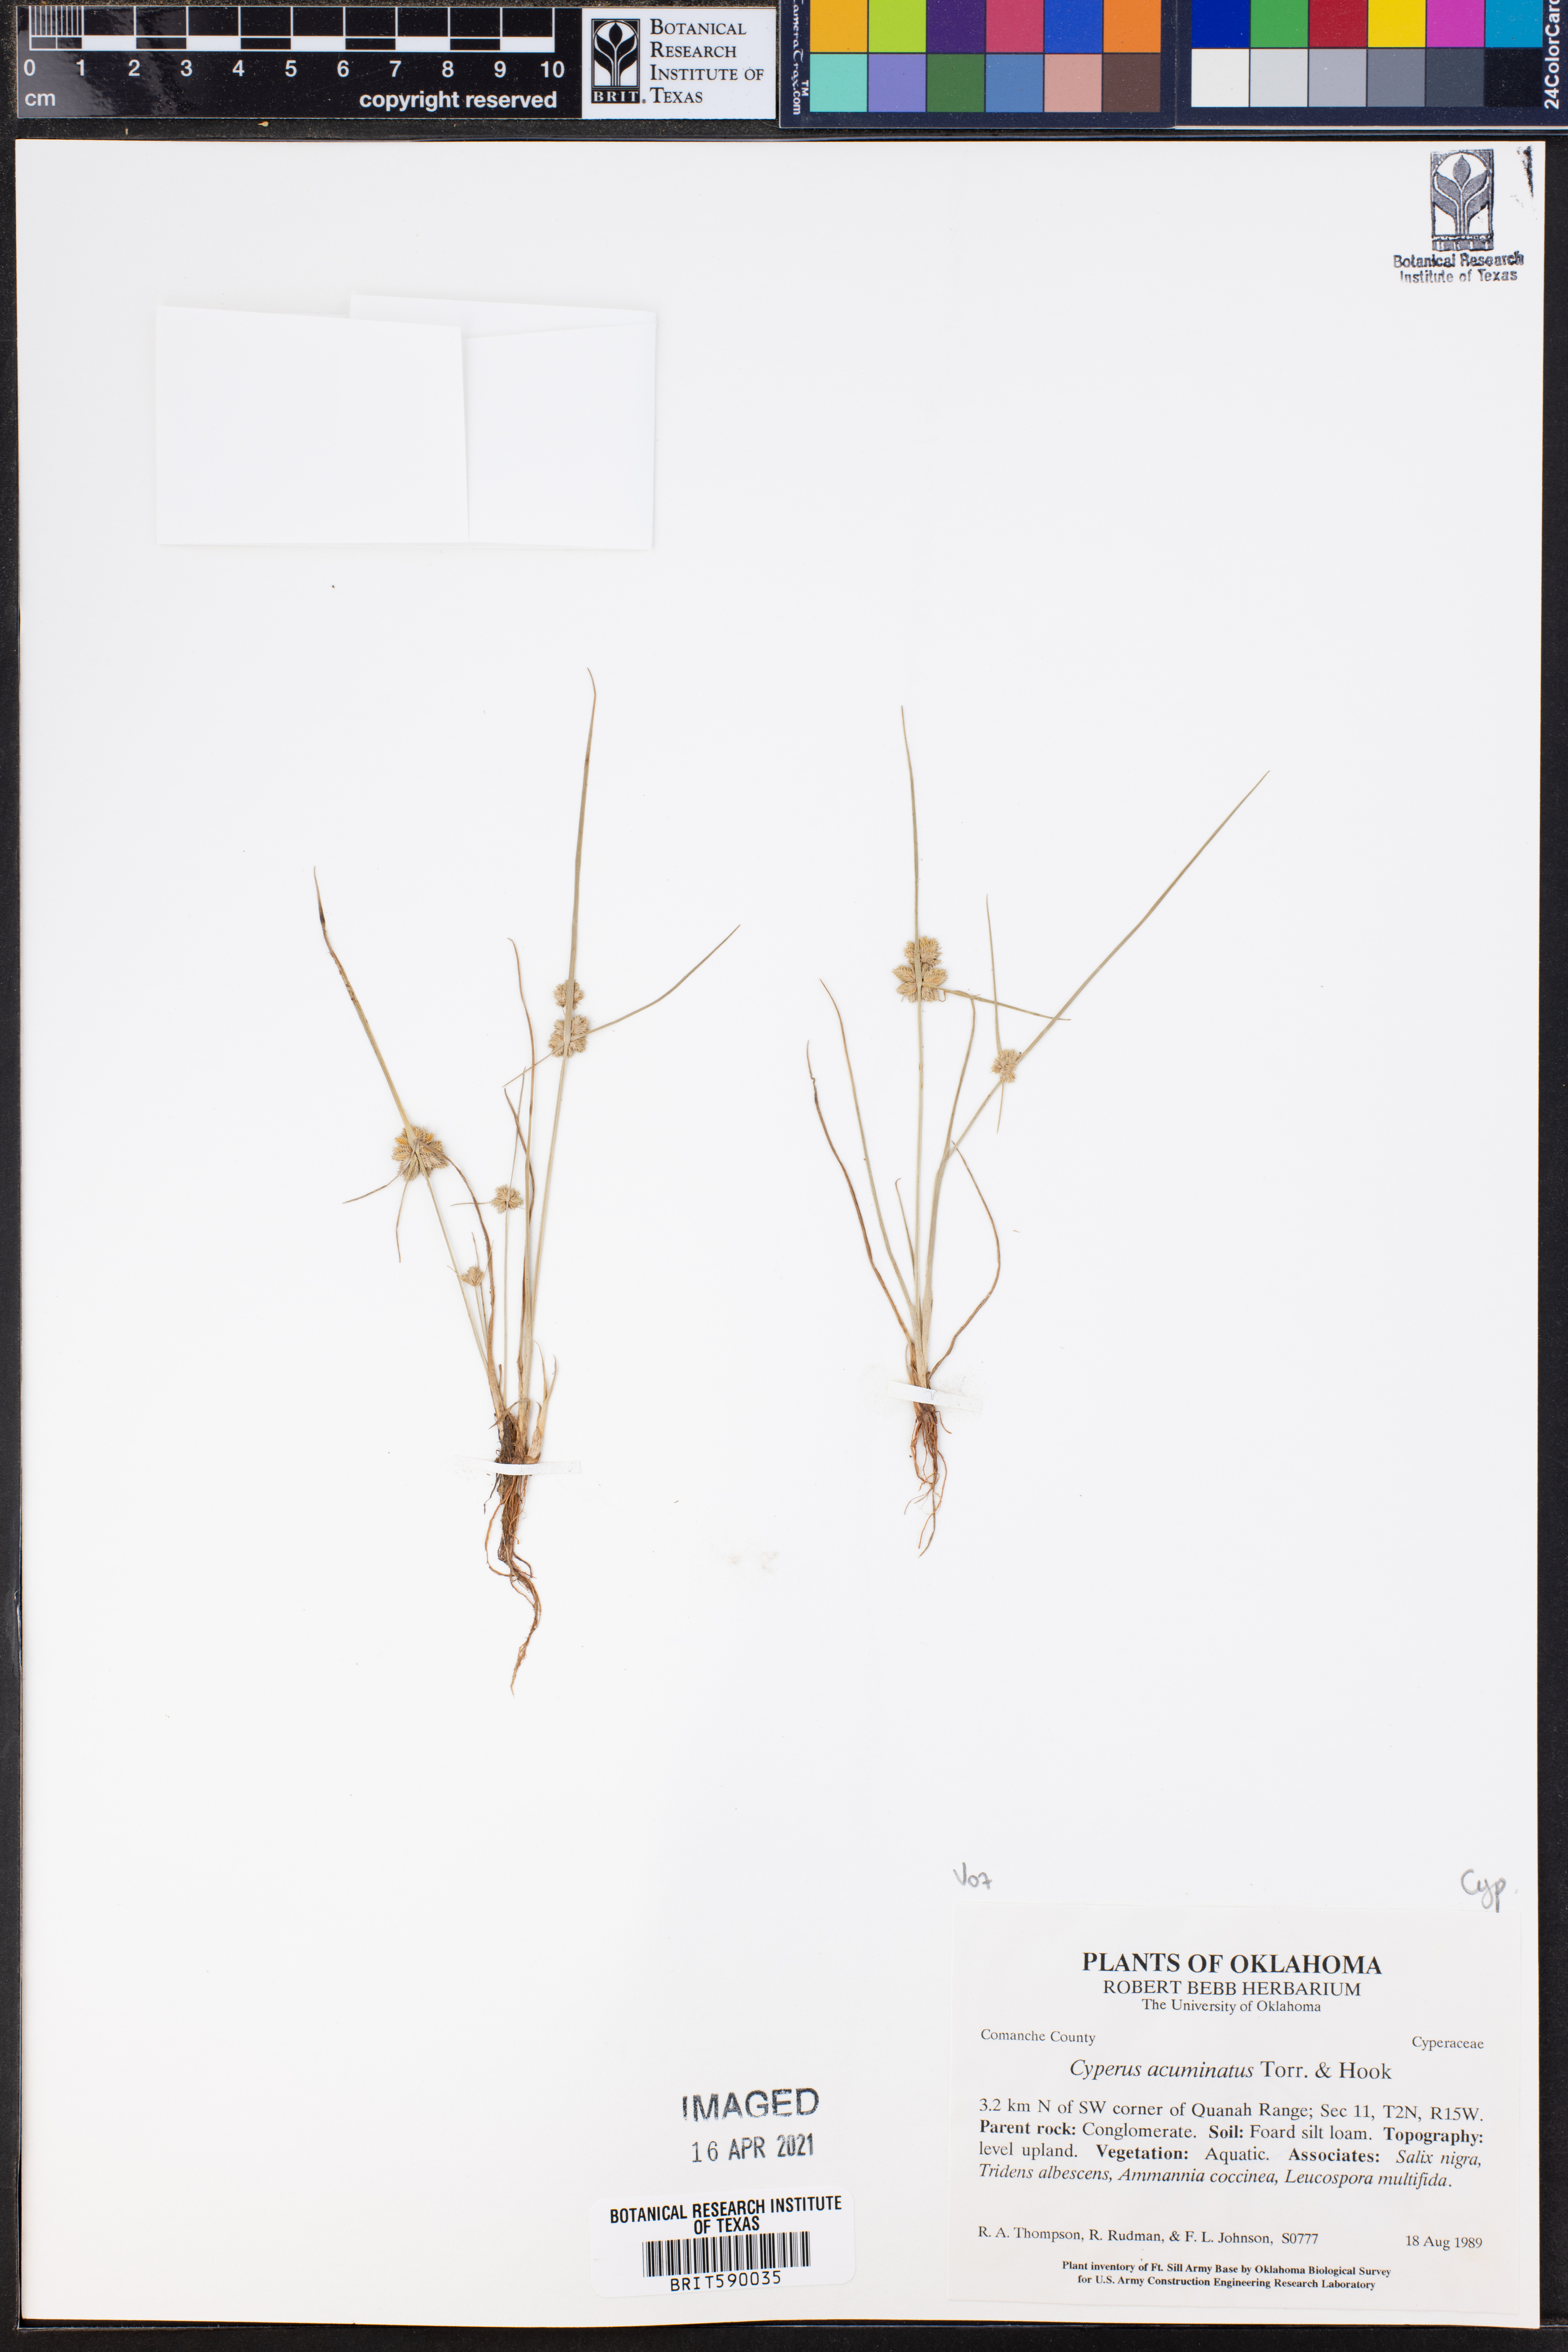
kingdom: Plantae
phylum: Tracheophyta
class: Liliopsida
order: Poales
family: Cyperaceae
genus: Cyperus
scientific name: Cyperus acuminatus
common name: Short-pointed cyperus
